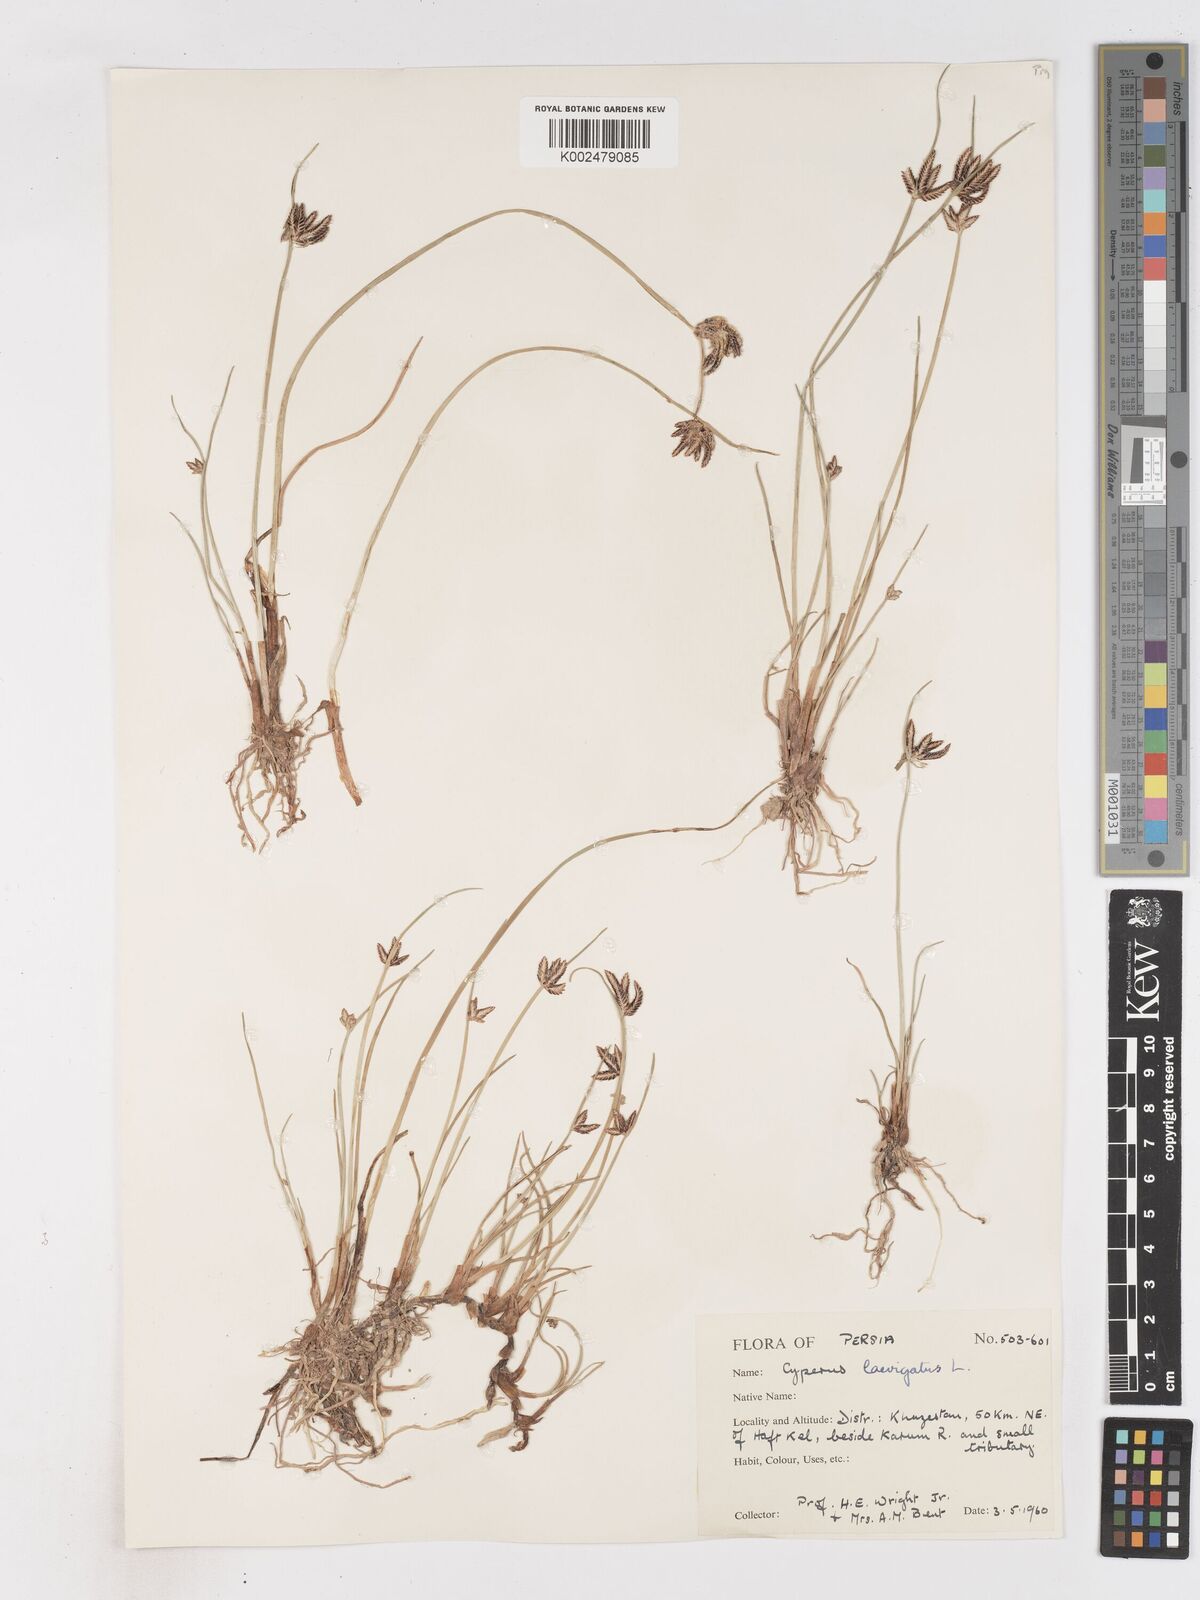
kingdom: Plantae
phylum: Tracheophyta
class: Liliopsida
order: Poales
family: Cyperaceae
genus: Cyperus
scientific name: Cyperus laevigatus
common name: Smooth flat sedge
